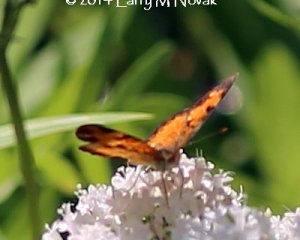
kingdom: Animalia
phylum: Arthropoda
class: Insecta
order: Lepidoptera
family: Nymphalidae
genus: Phyciodes
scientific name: Phyciodes tharos
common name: Northern Crescent
